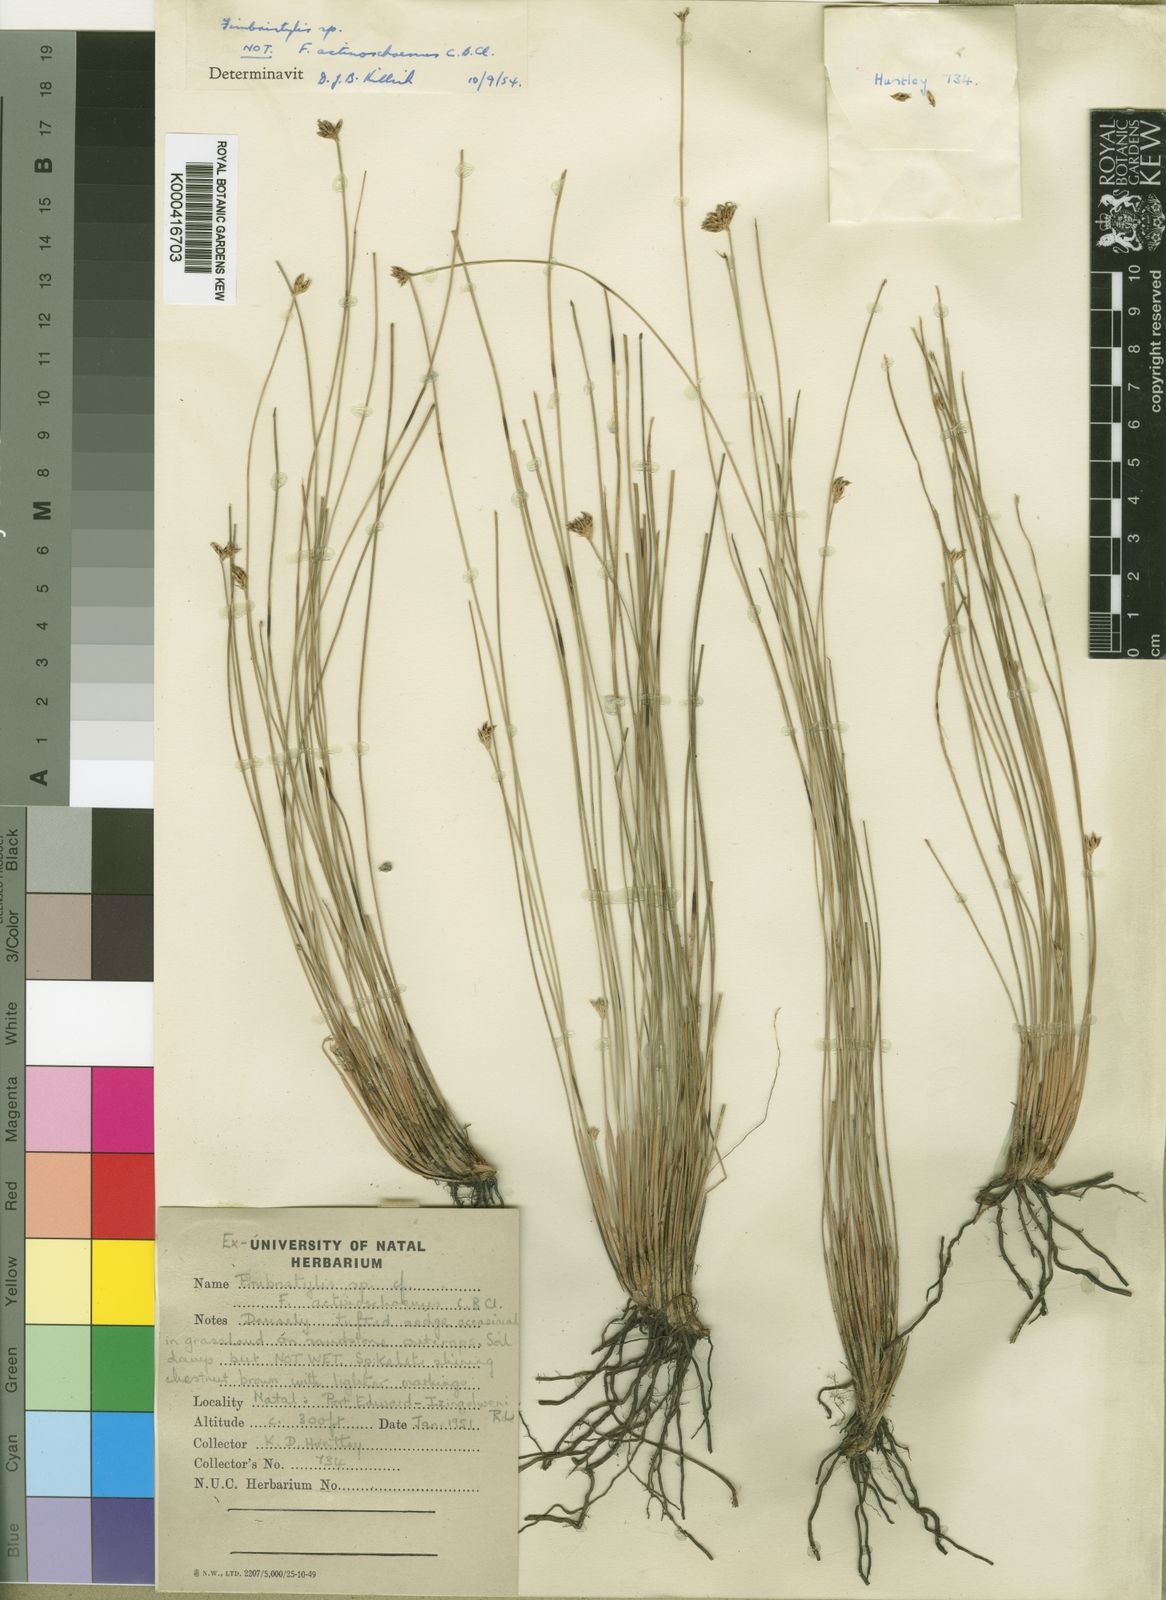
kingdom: Plantae
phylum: Tracheophyta
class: Liliopsida
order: Poales
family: Cyperaceae
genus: Zulustylis
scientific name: Zulustylis variegata
